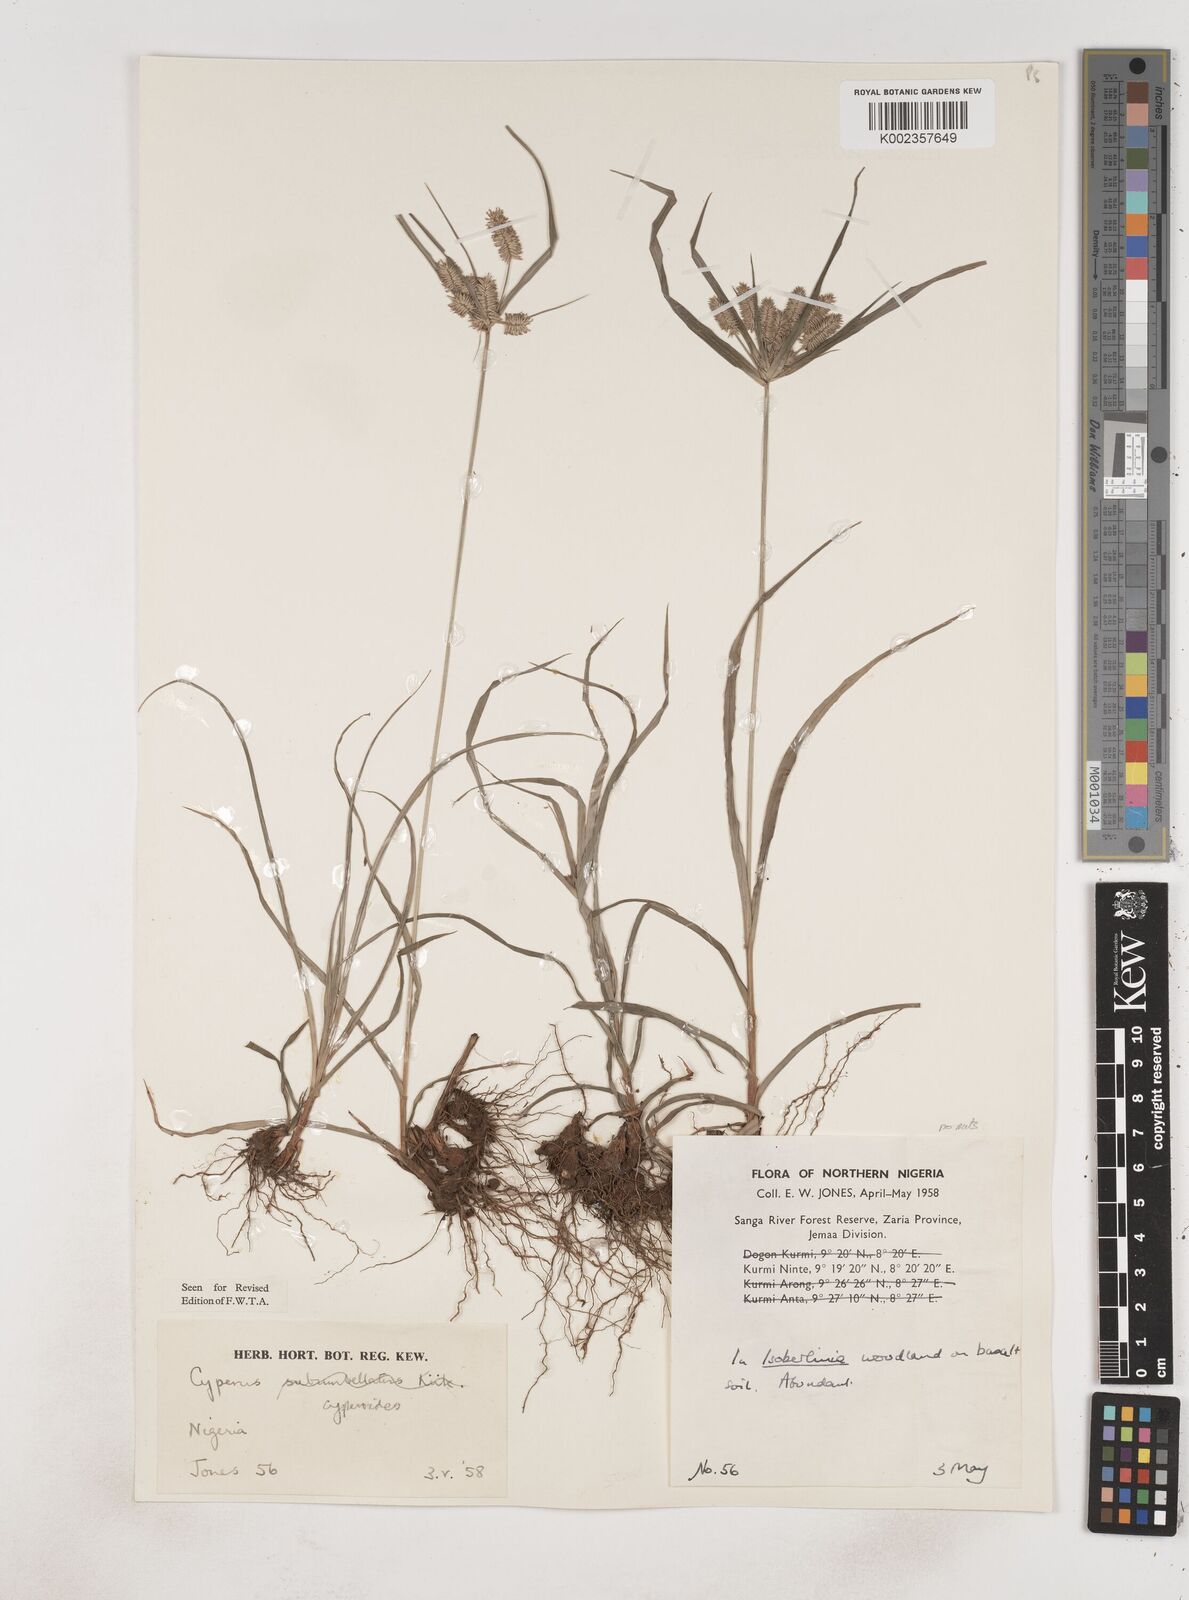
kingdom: Plantae
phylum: Tracheophyta
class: Liliopsida
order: Poales
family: Cyperaceae
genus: Cyperus
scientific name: Cyperus cyperoides
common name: Pacific island flat sedge
